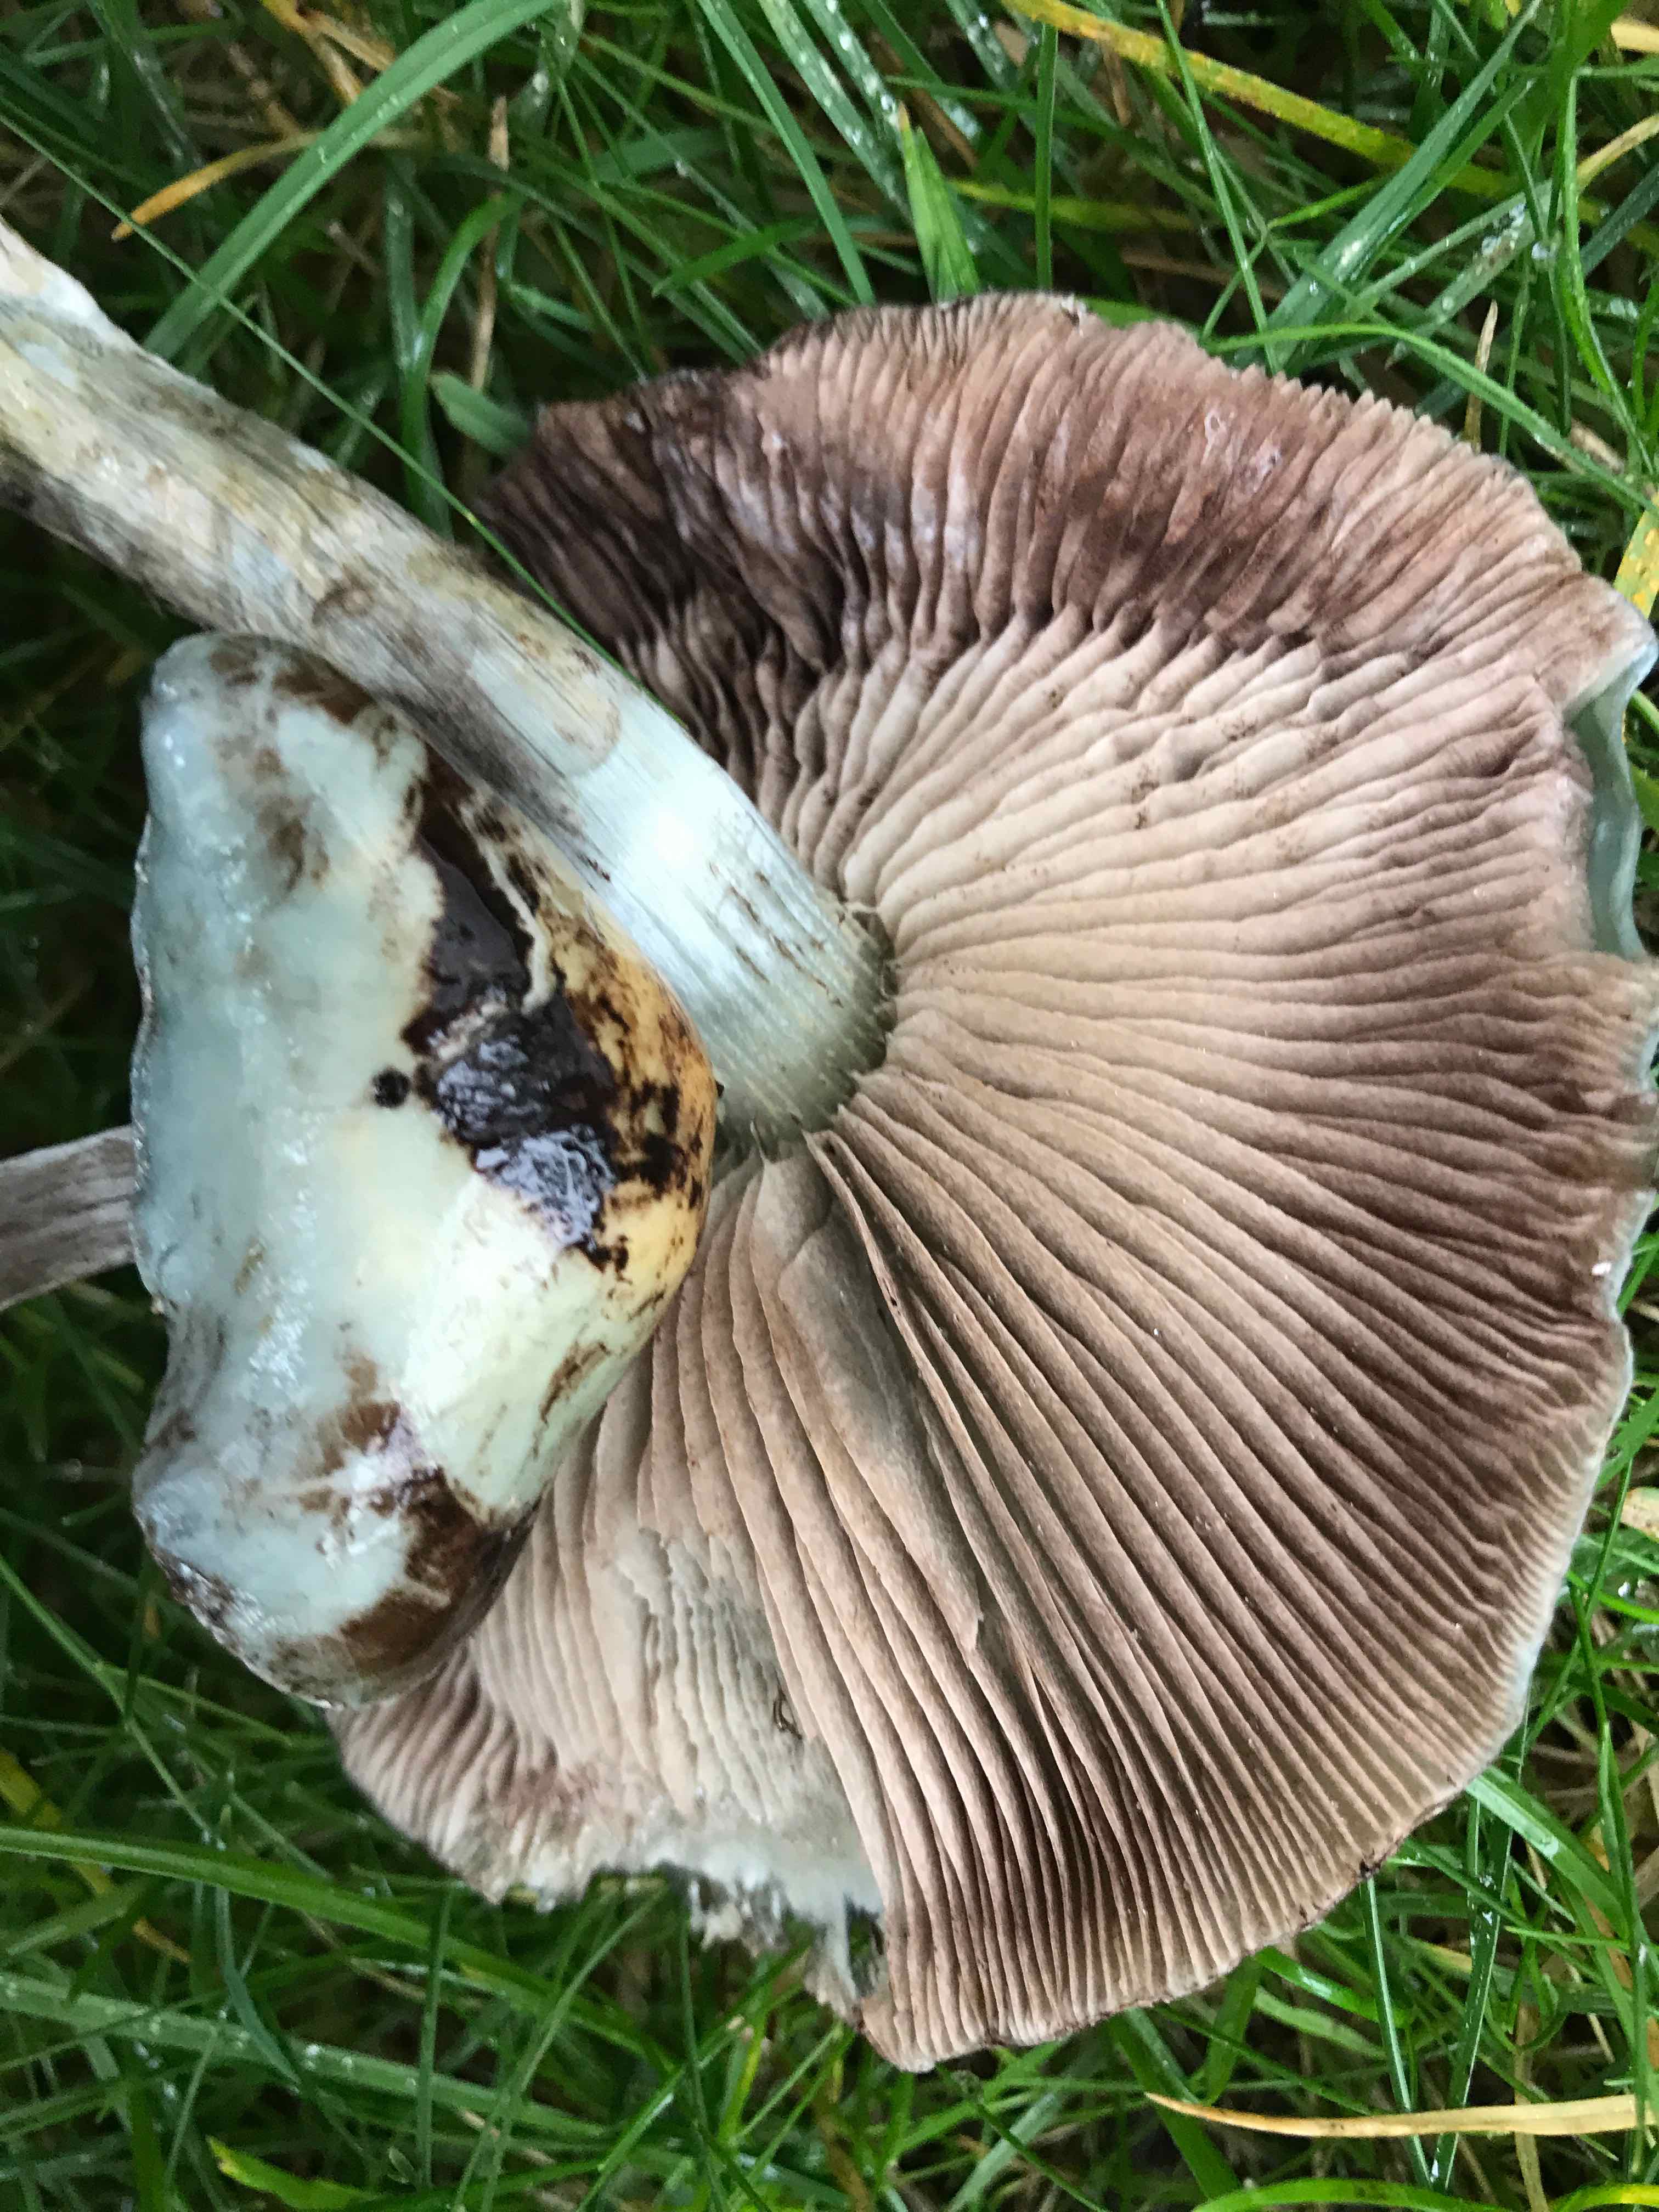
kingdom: Fungi
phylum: Basidiomycota
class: Agaricomycetes
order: Agaricales
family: Strophariaceae
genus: Stropharia
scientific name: Stropharia cyanea
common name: blågrøn bredblad
